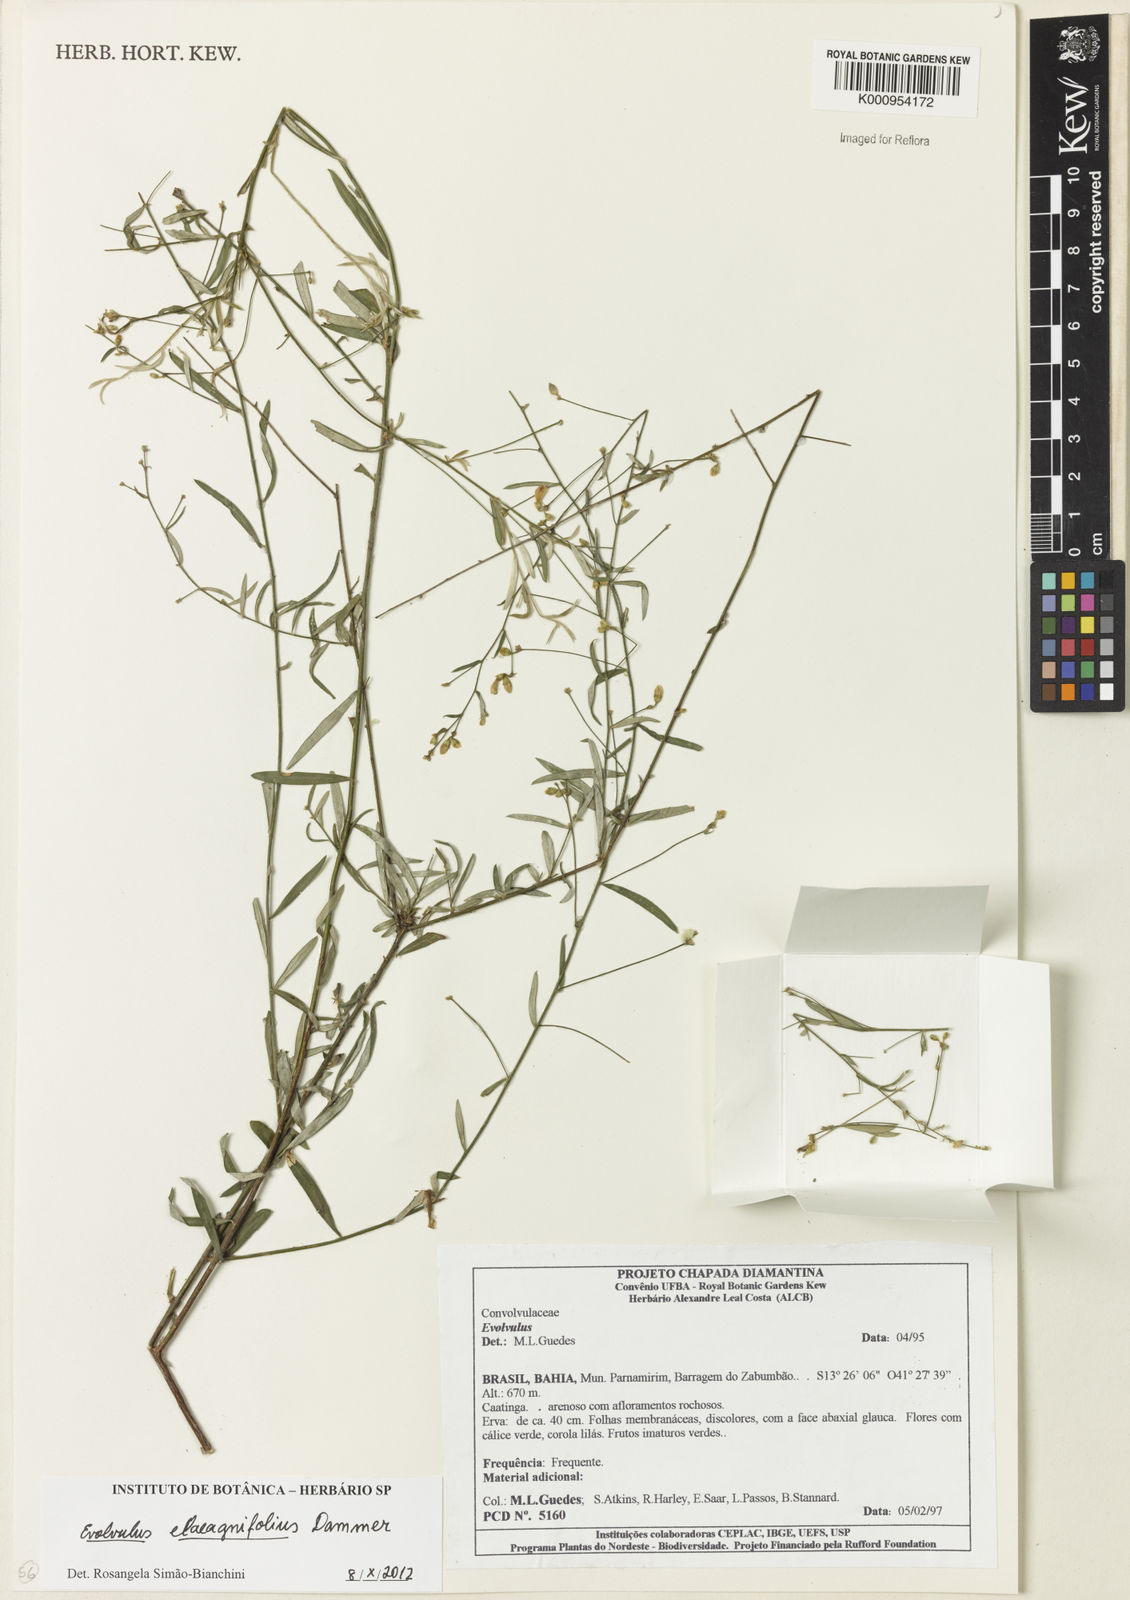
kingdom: Plantae
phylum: Tracheophyta
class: Magnoliopsida
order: Solanales
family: Convolvulaceae
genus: Evolvulus
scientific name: Evolvulus elaeagnifolius
